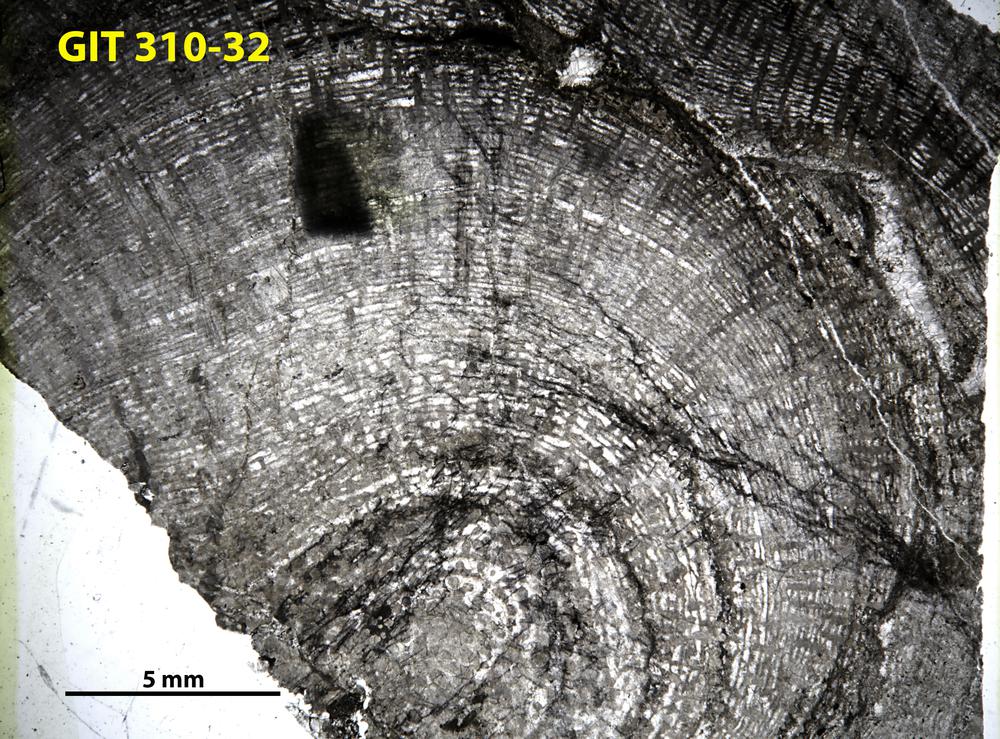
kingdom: Animalia
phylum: Porifera
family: Labechiidae
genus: Labechiella
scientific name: Labechiella regularis
